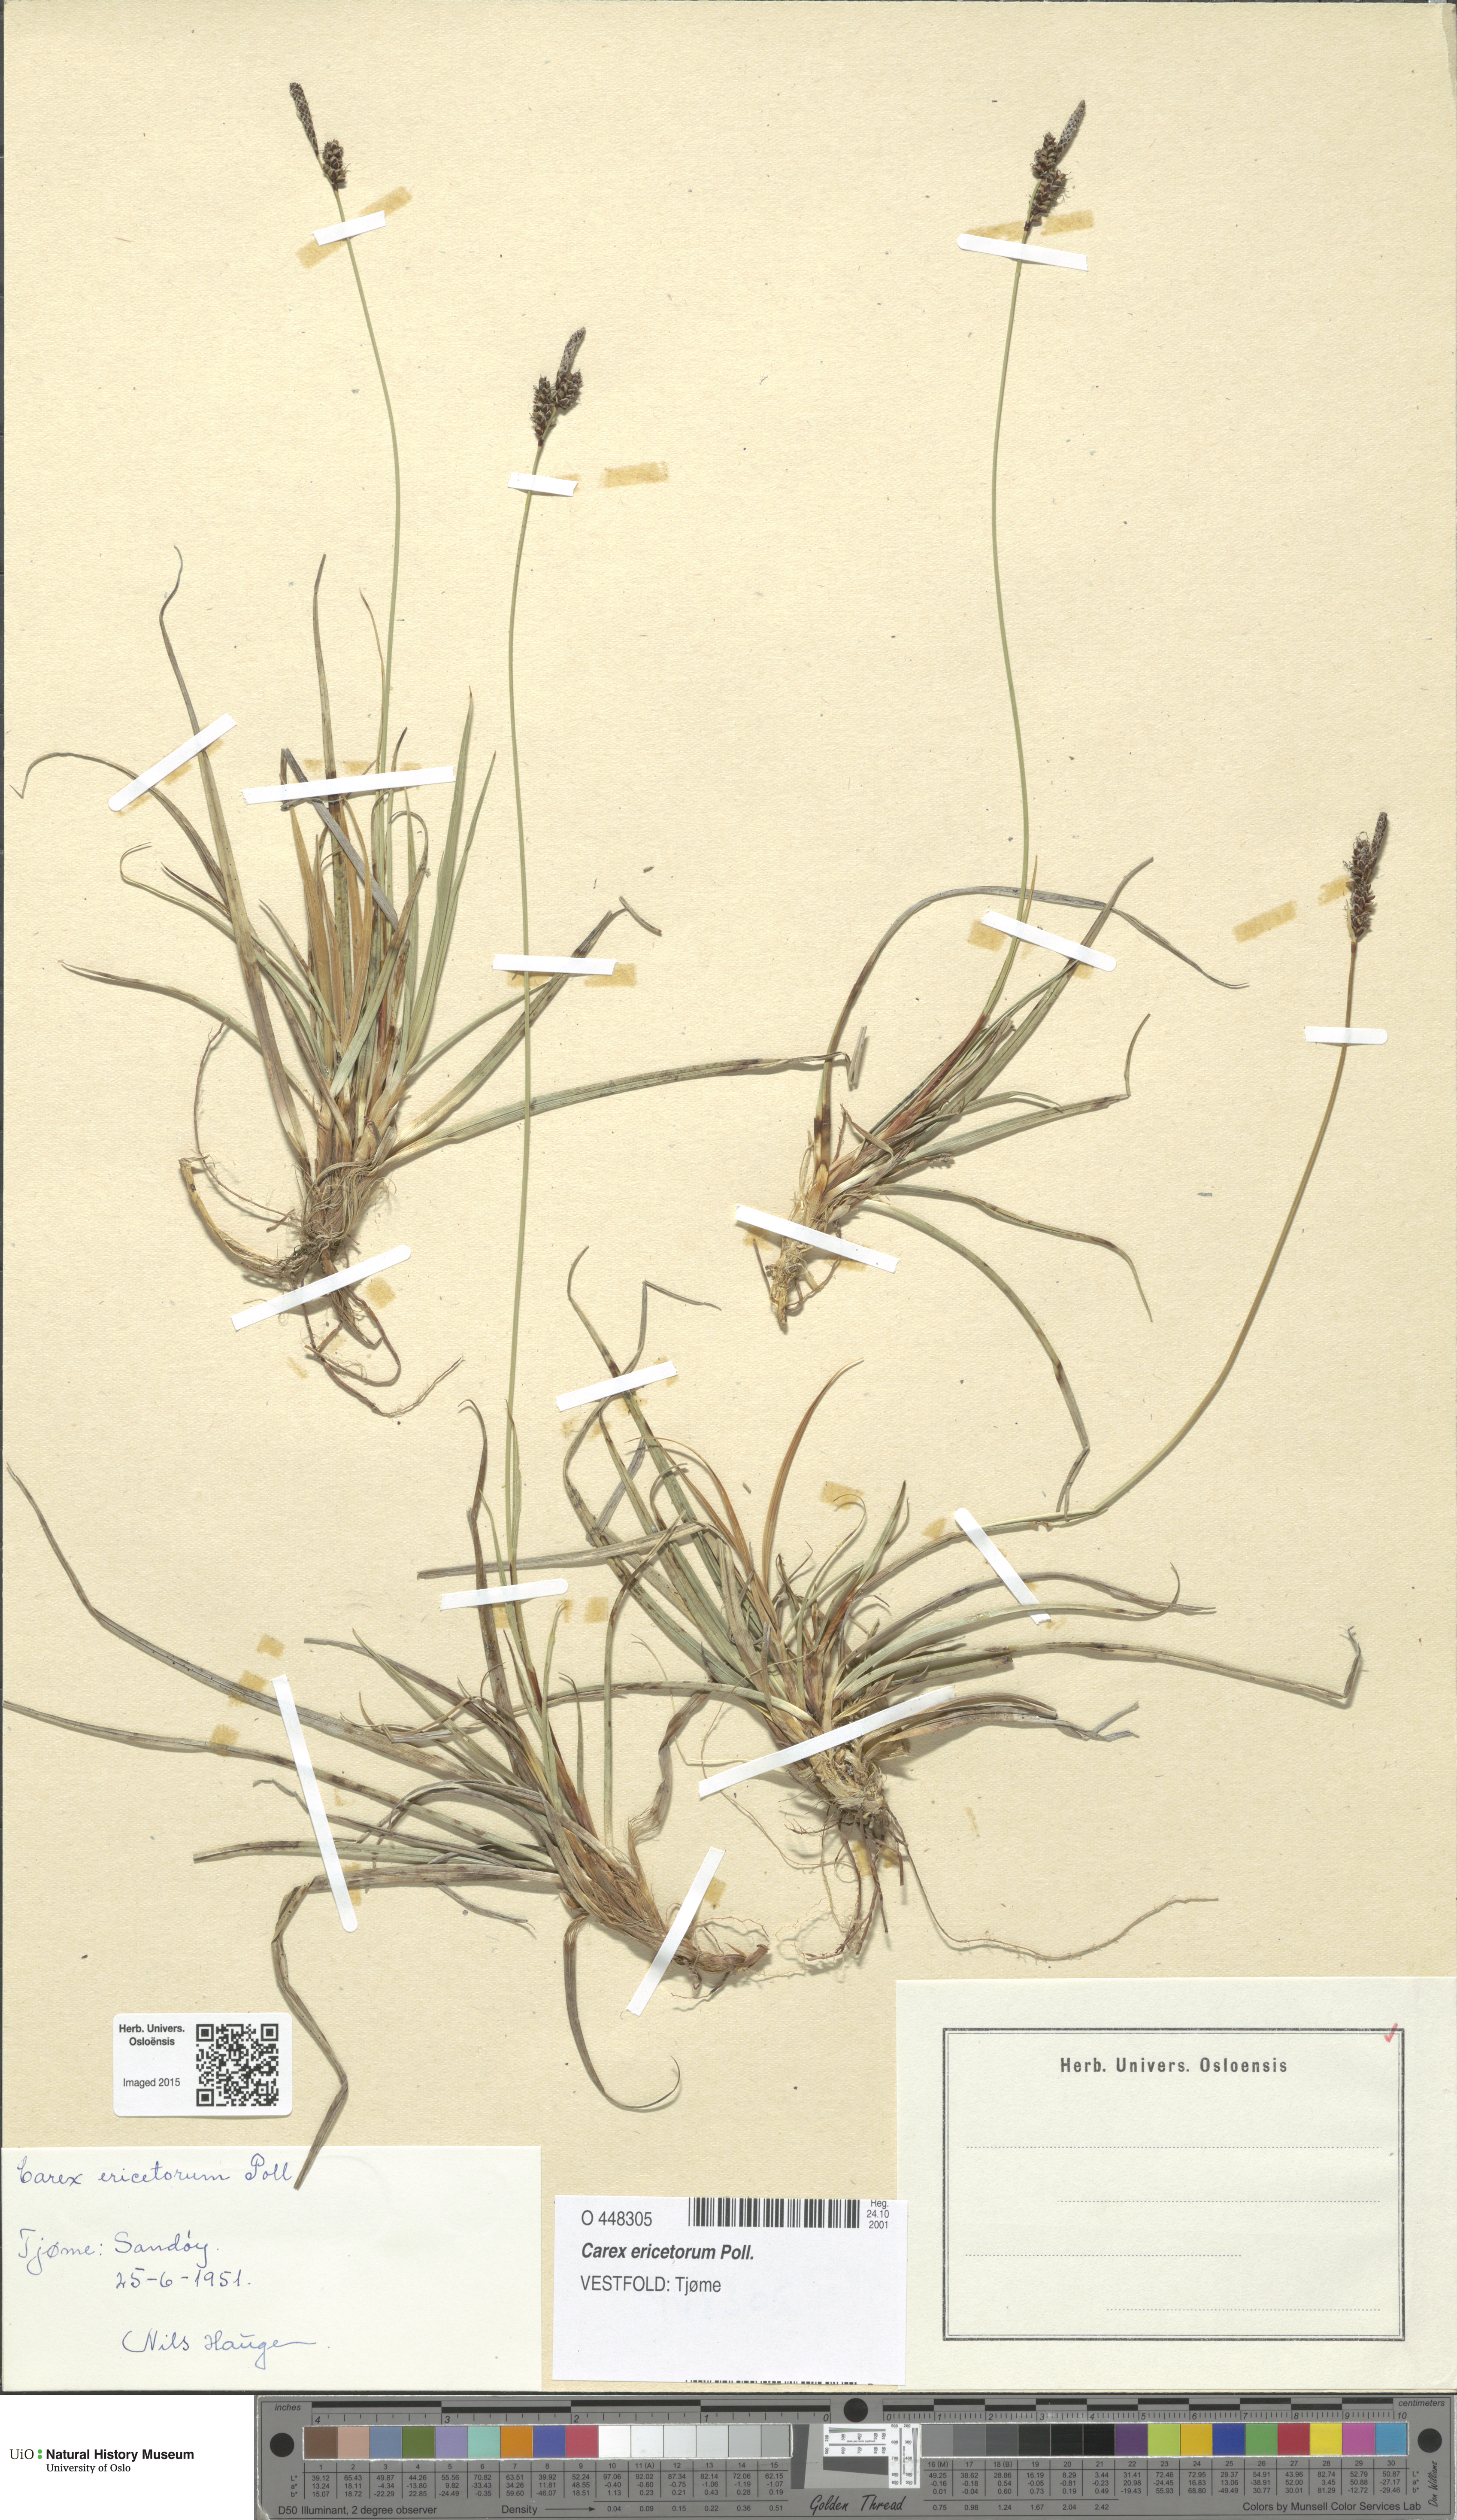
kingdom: Plantae
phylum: Tracheophyta
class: Liliopsida
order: Poales
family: Cyperaceae
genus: Carex
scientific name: Carex ericetorum
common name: Rare spring-sedge
